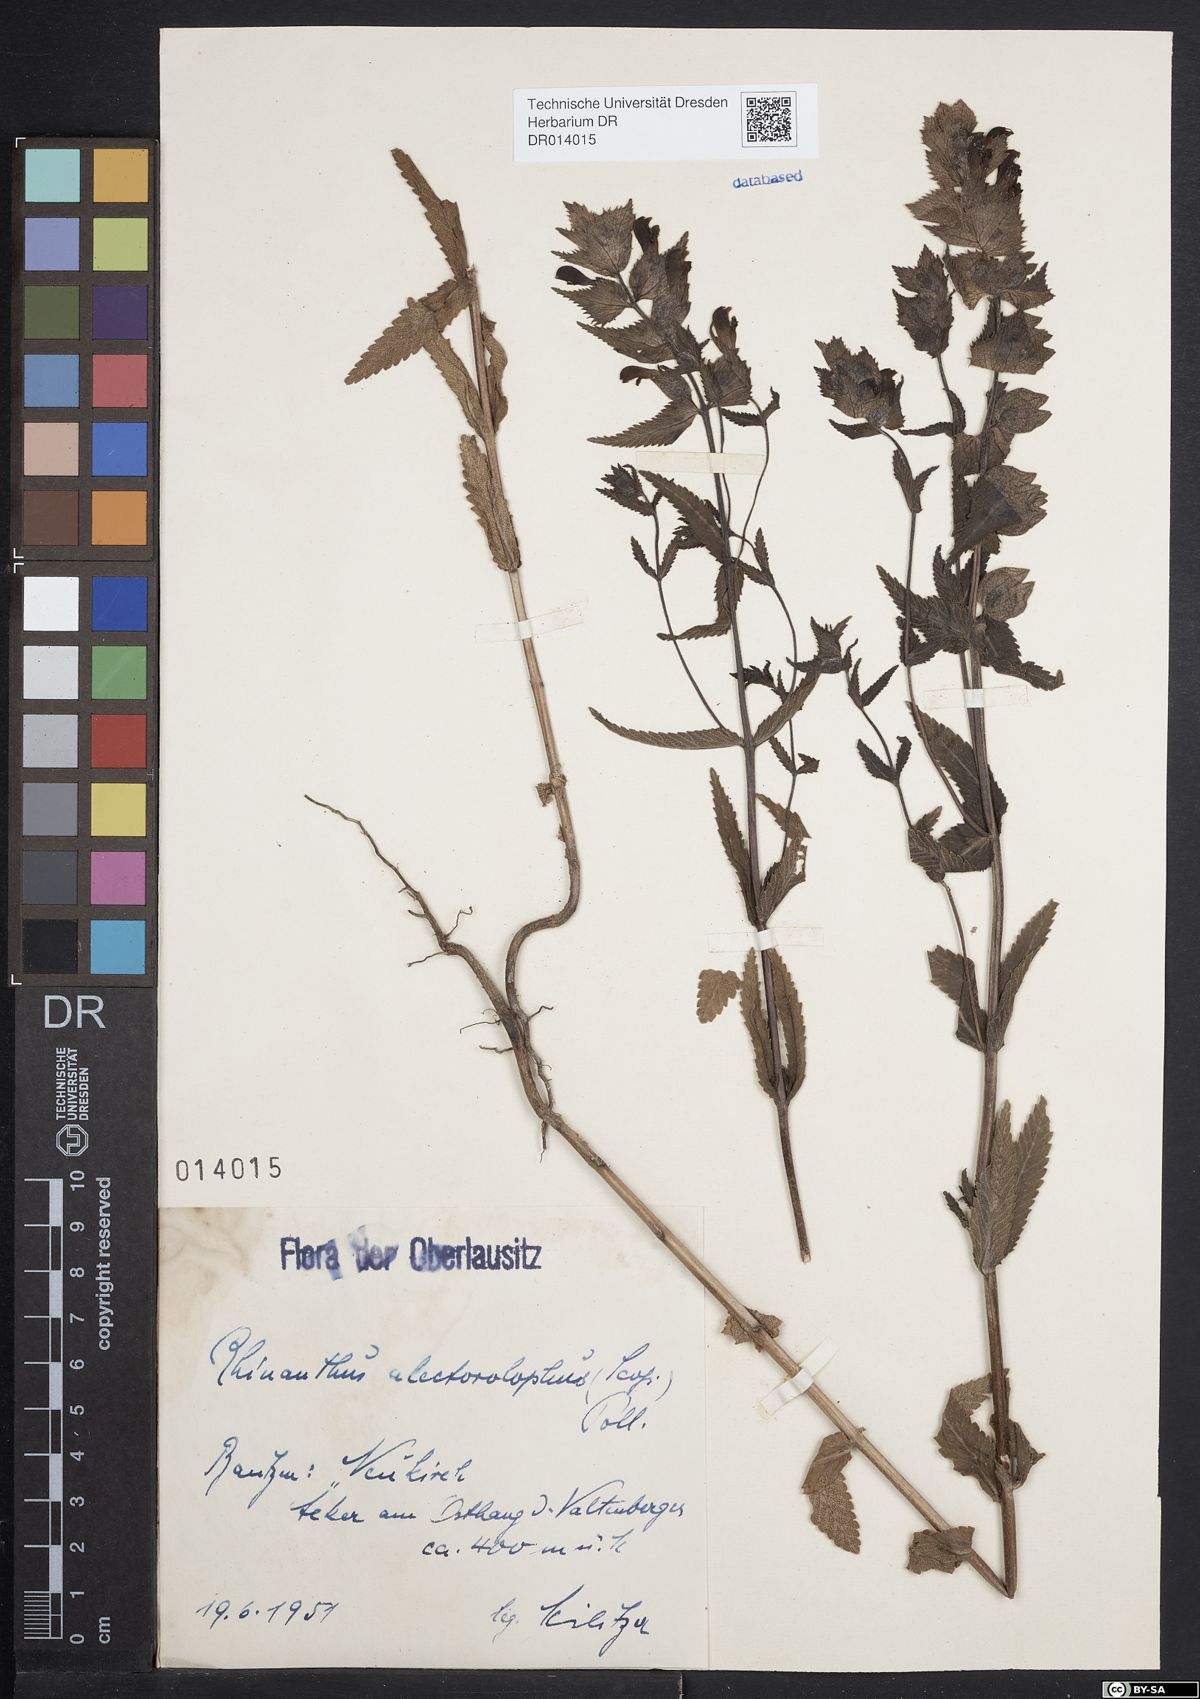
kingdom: Plantae
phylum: Tracheophyta
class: Magnoliopsida
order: Lamiales
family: Orobanchaceae
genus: Rhinanthus
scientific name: Rhinanthus alectorolophus
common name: Greater yellow-rattle
